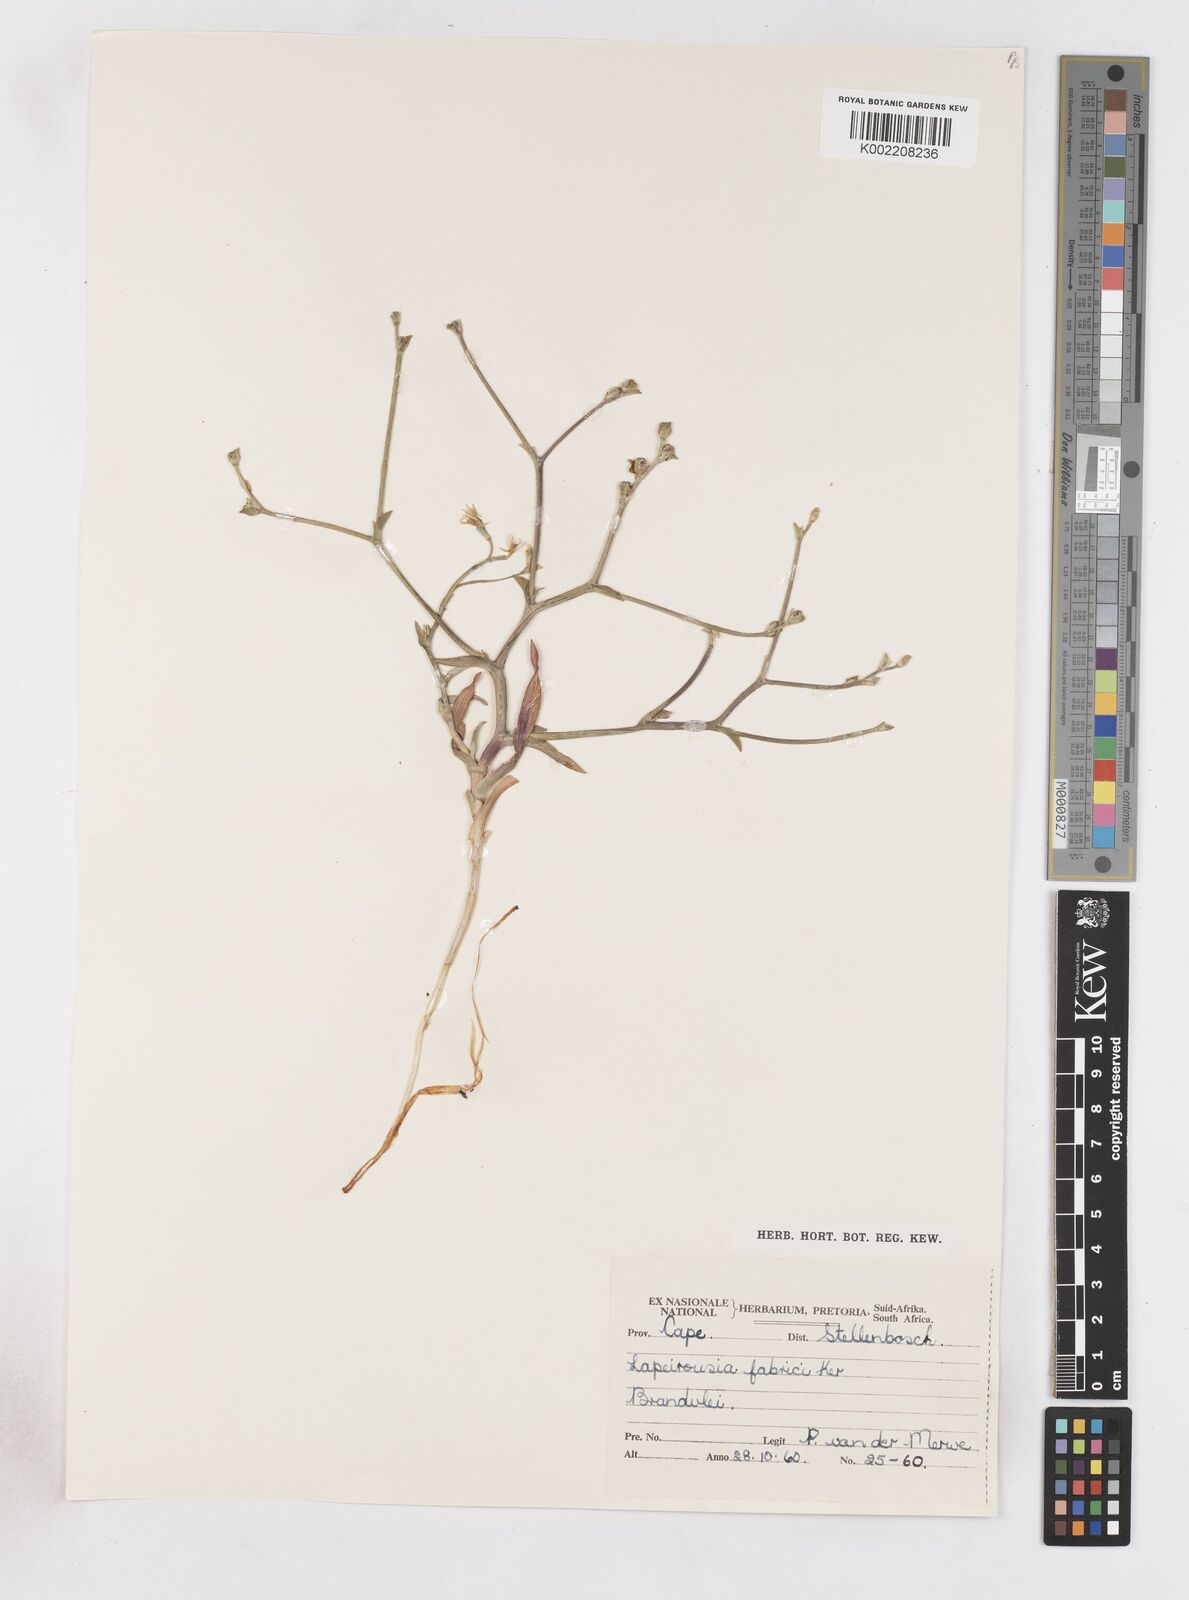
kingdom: Plantae
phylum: Tracheophyta
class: Liliopsida
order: Asparagales
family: Iridaceae
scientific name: Iridaceae
